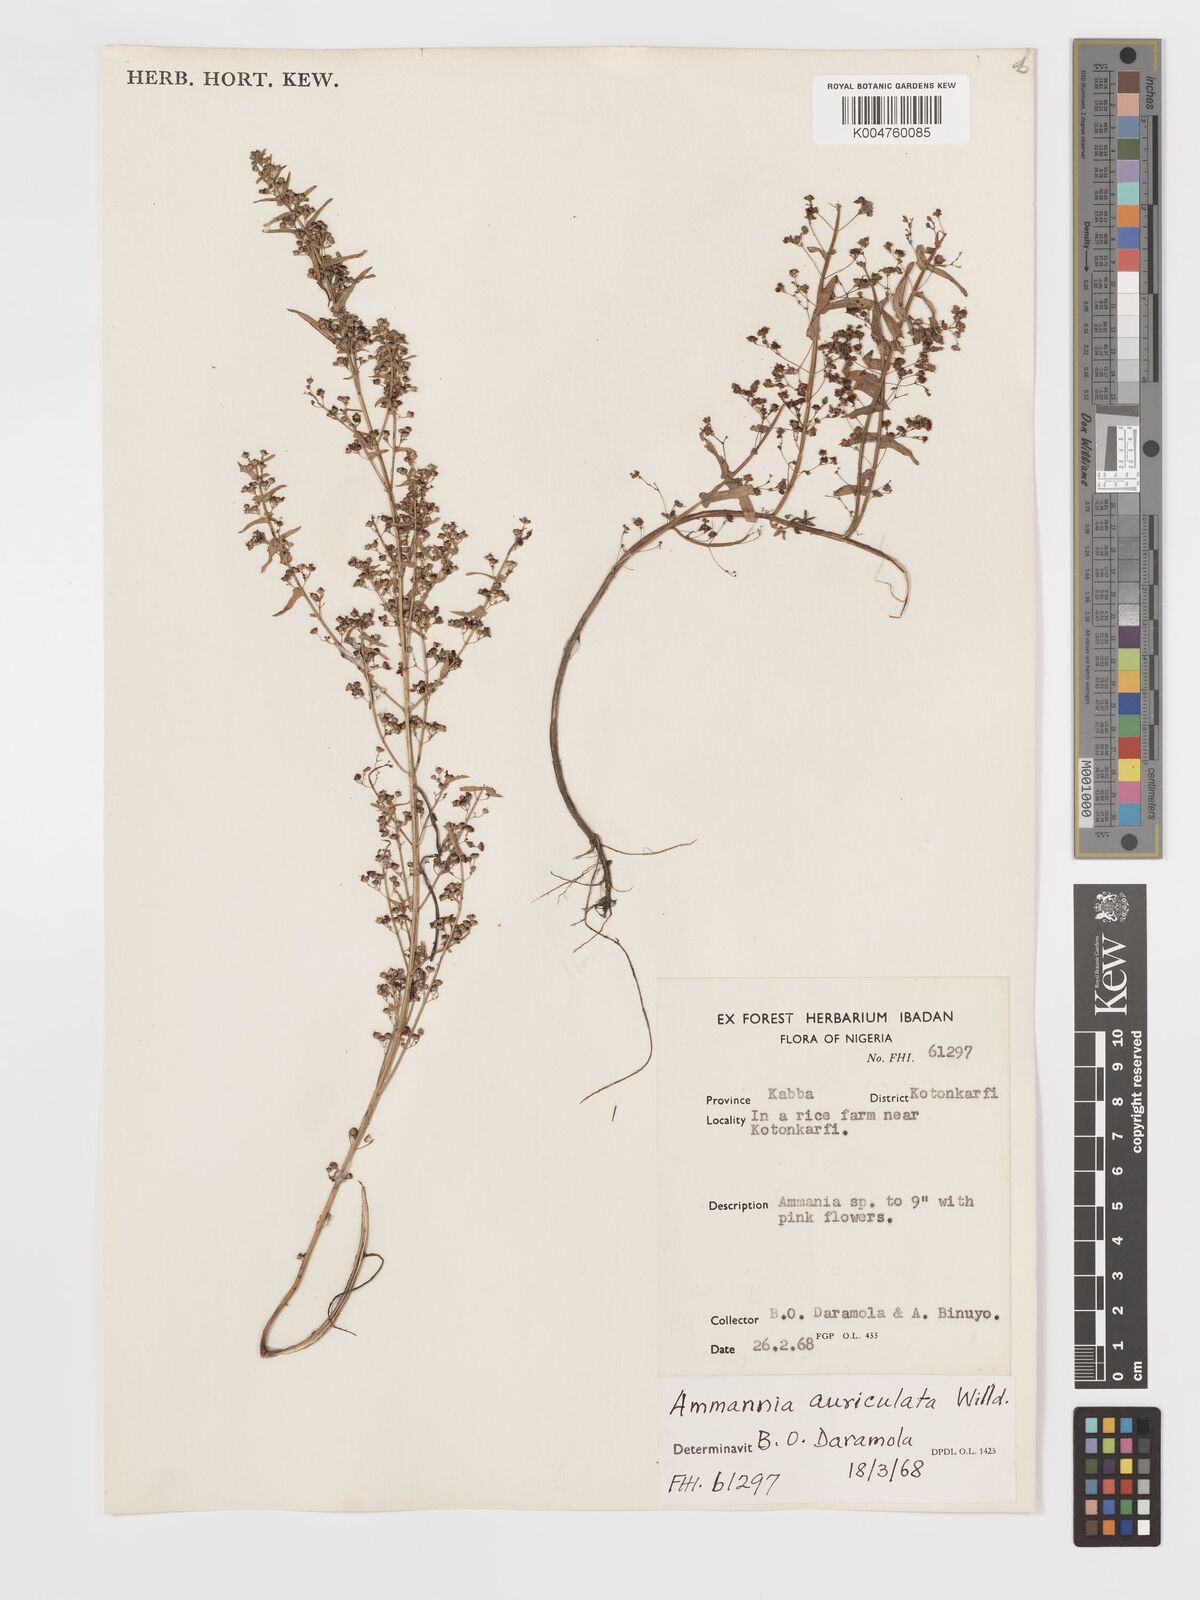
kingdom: Plantae
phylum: Tracheophyta
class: Magnoliopsida
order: Myrtales
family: Lythraceae
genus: Ammannia
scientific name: Ammannia auriculata
